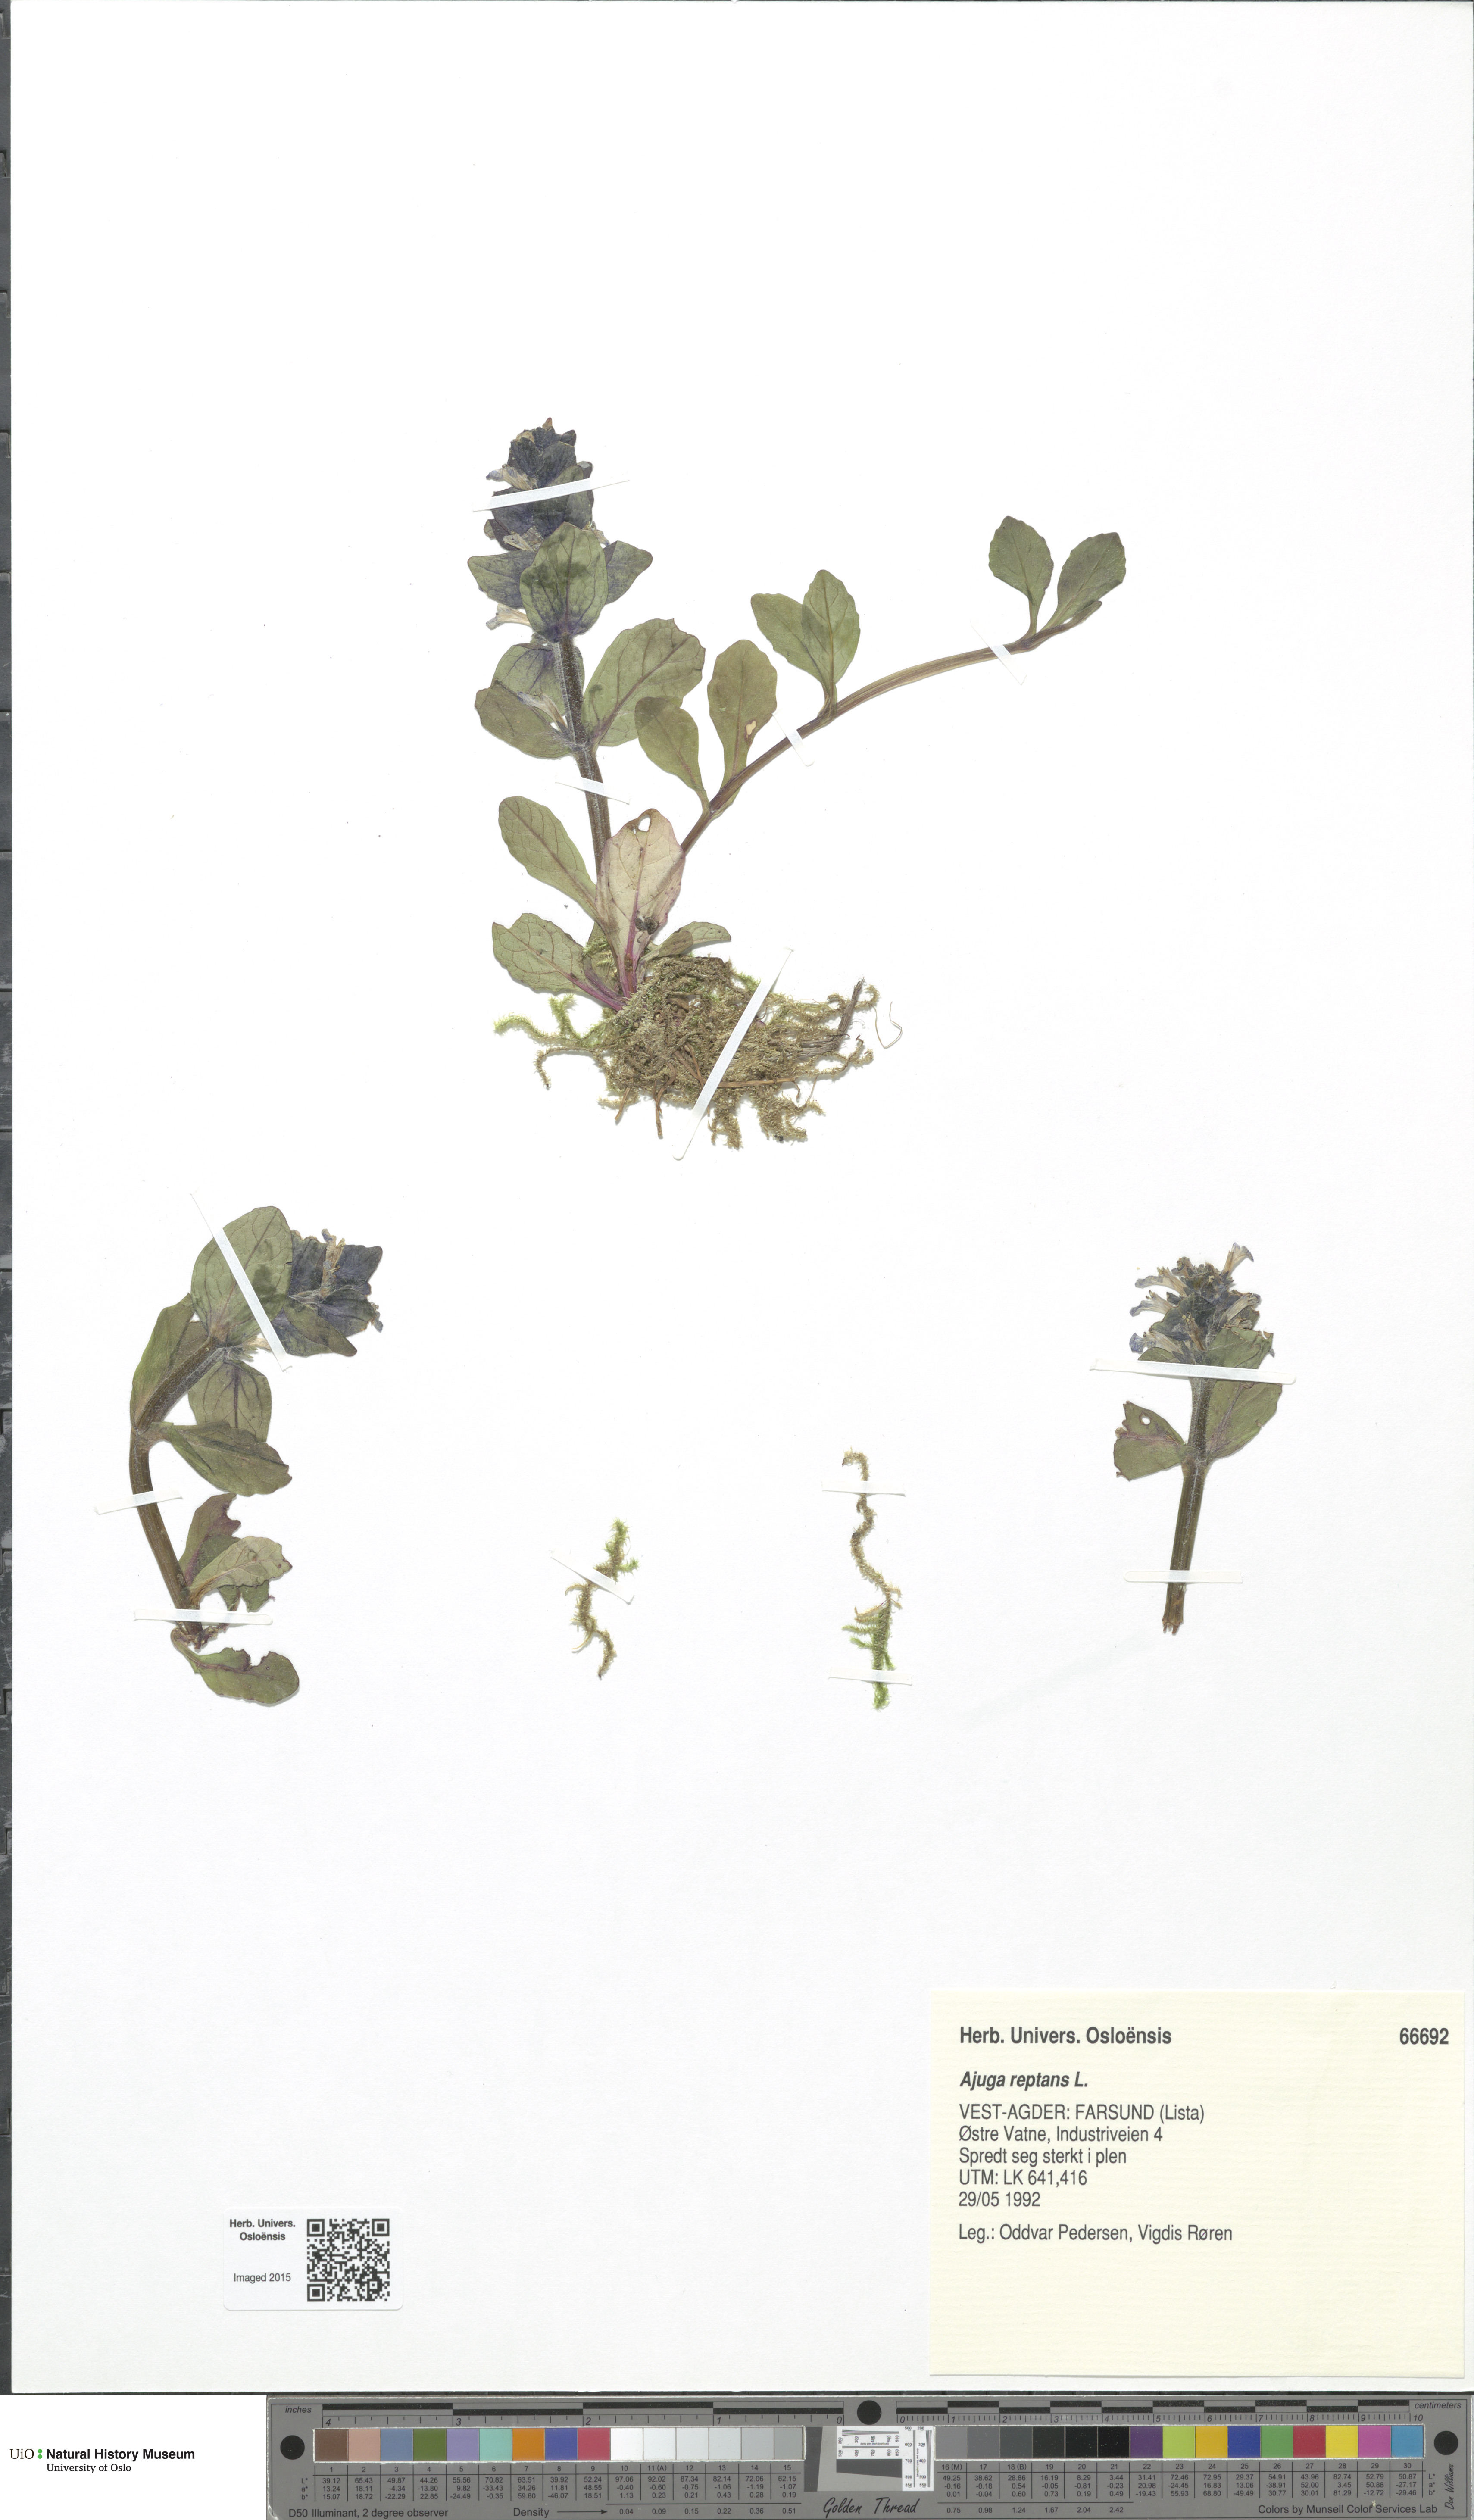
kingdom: Plantae
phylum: Tracheophyta
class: Magnoliopsida
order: Lamiales
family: Lamiaceae
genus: Ajuga
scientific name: Ajuga reptans
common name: Bugle
